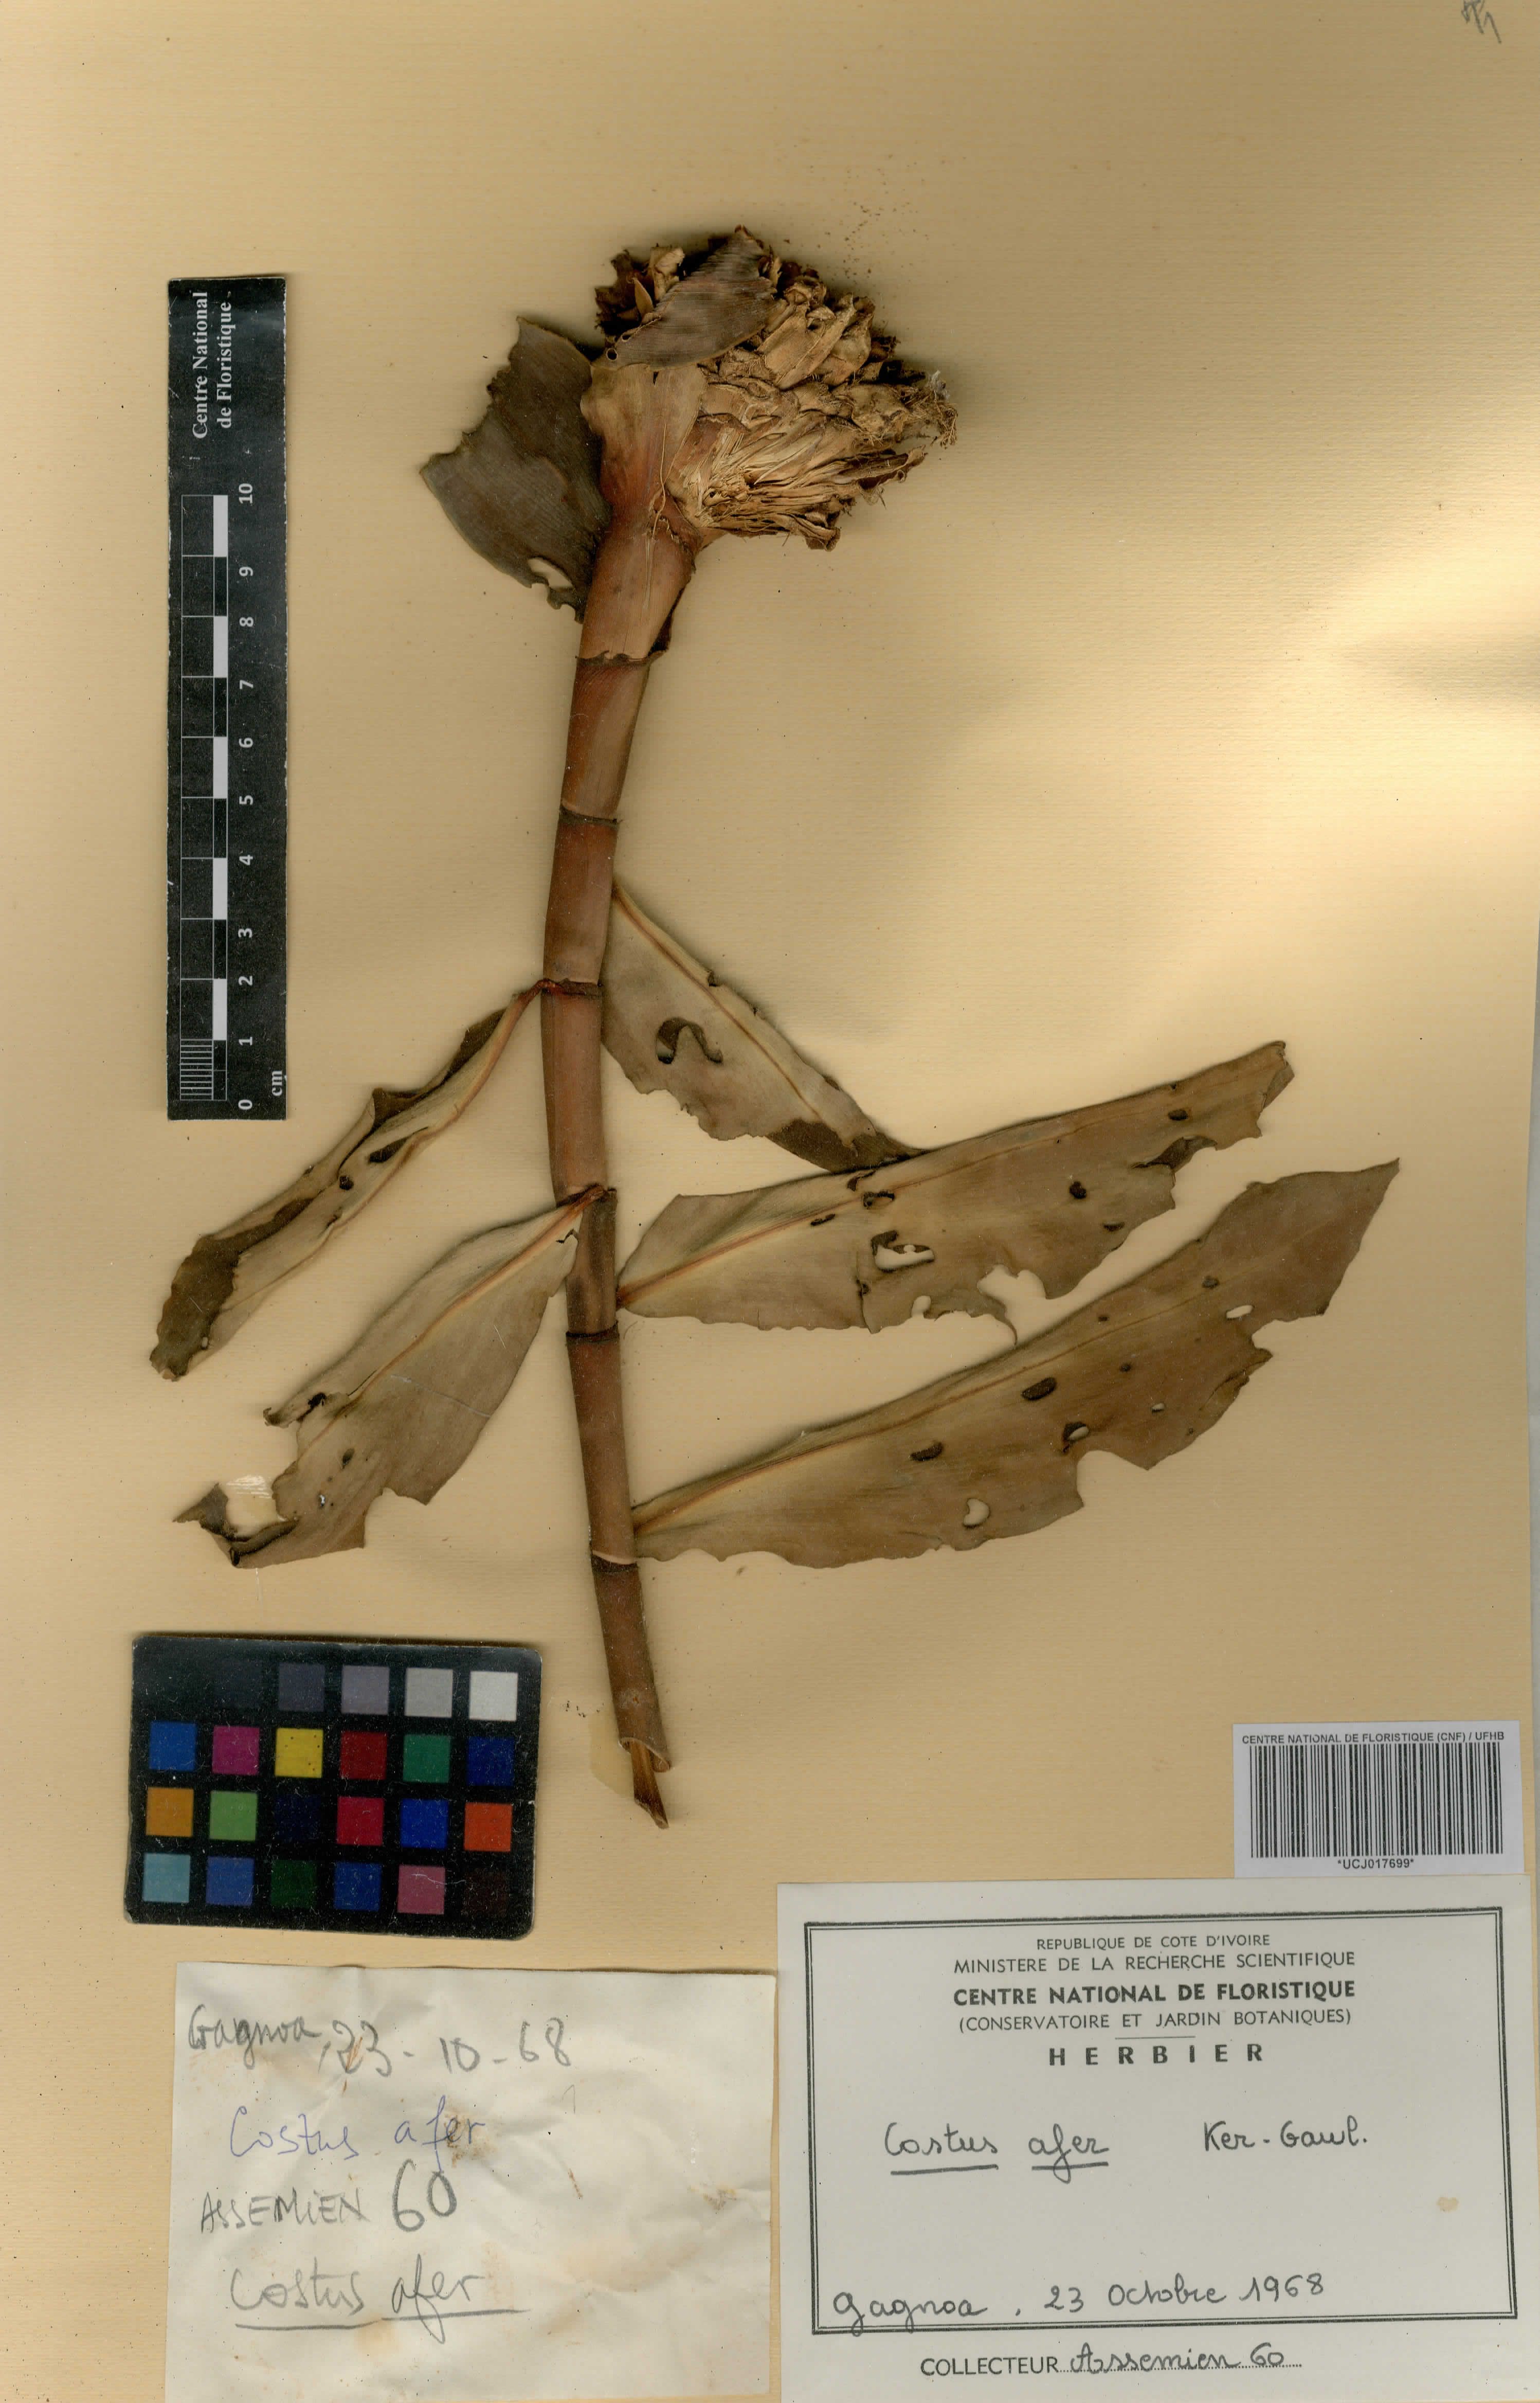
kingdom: Plantae
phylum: Tracheophyta
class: Liliopsida
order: Zingiberales
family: Costaceae
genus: Costus
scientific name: Costus afer
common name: Spiral-ginger
